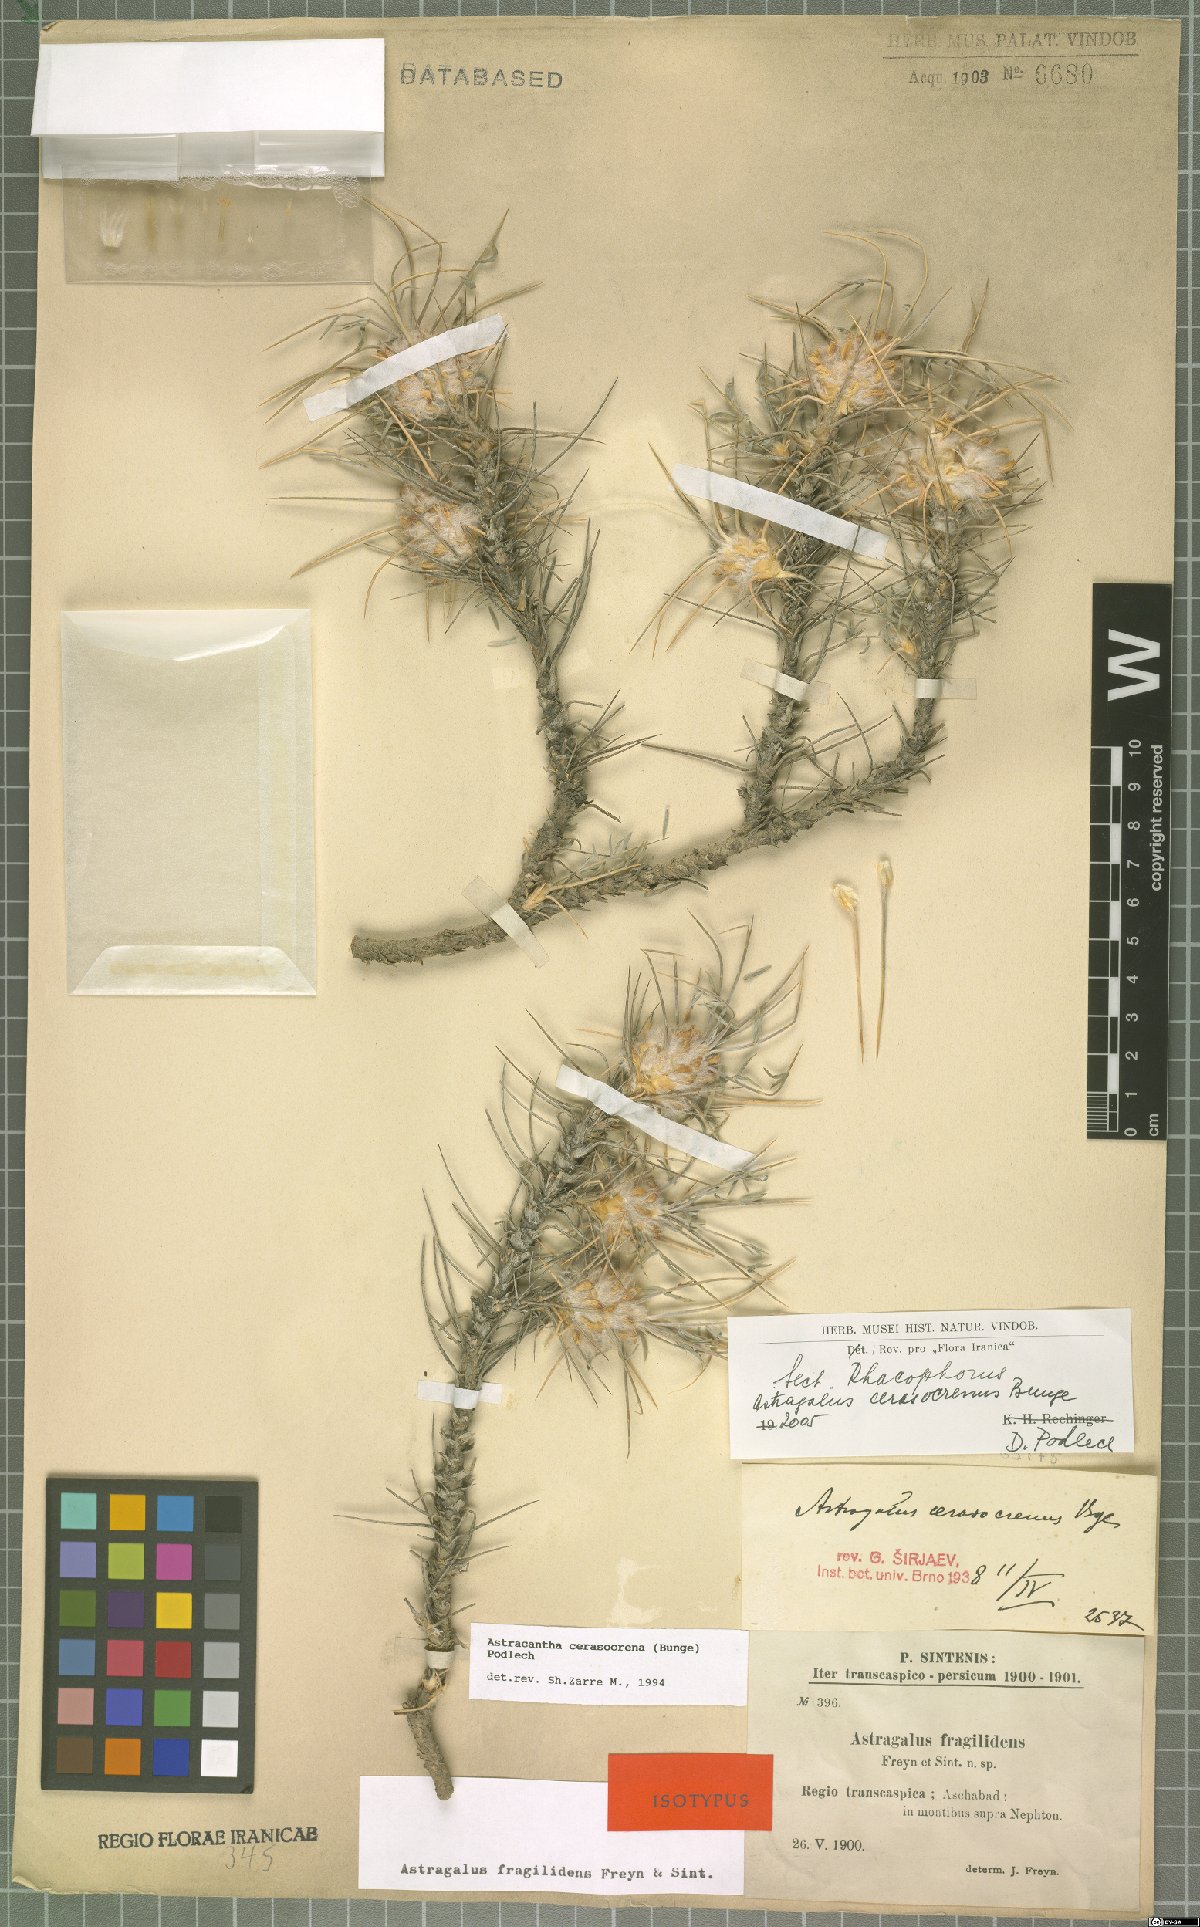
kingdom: Plantae
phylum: Tracheophyta
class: Magnoliopsida
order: Fabales
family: Fabaceae
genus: Astragalus
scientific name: Astragalus cerasocrenus
